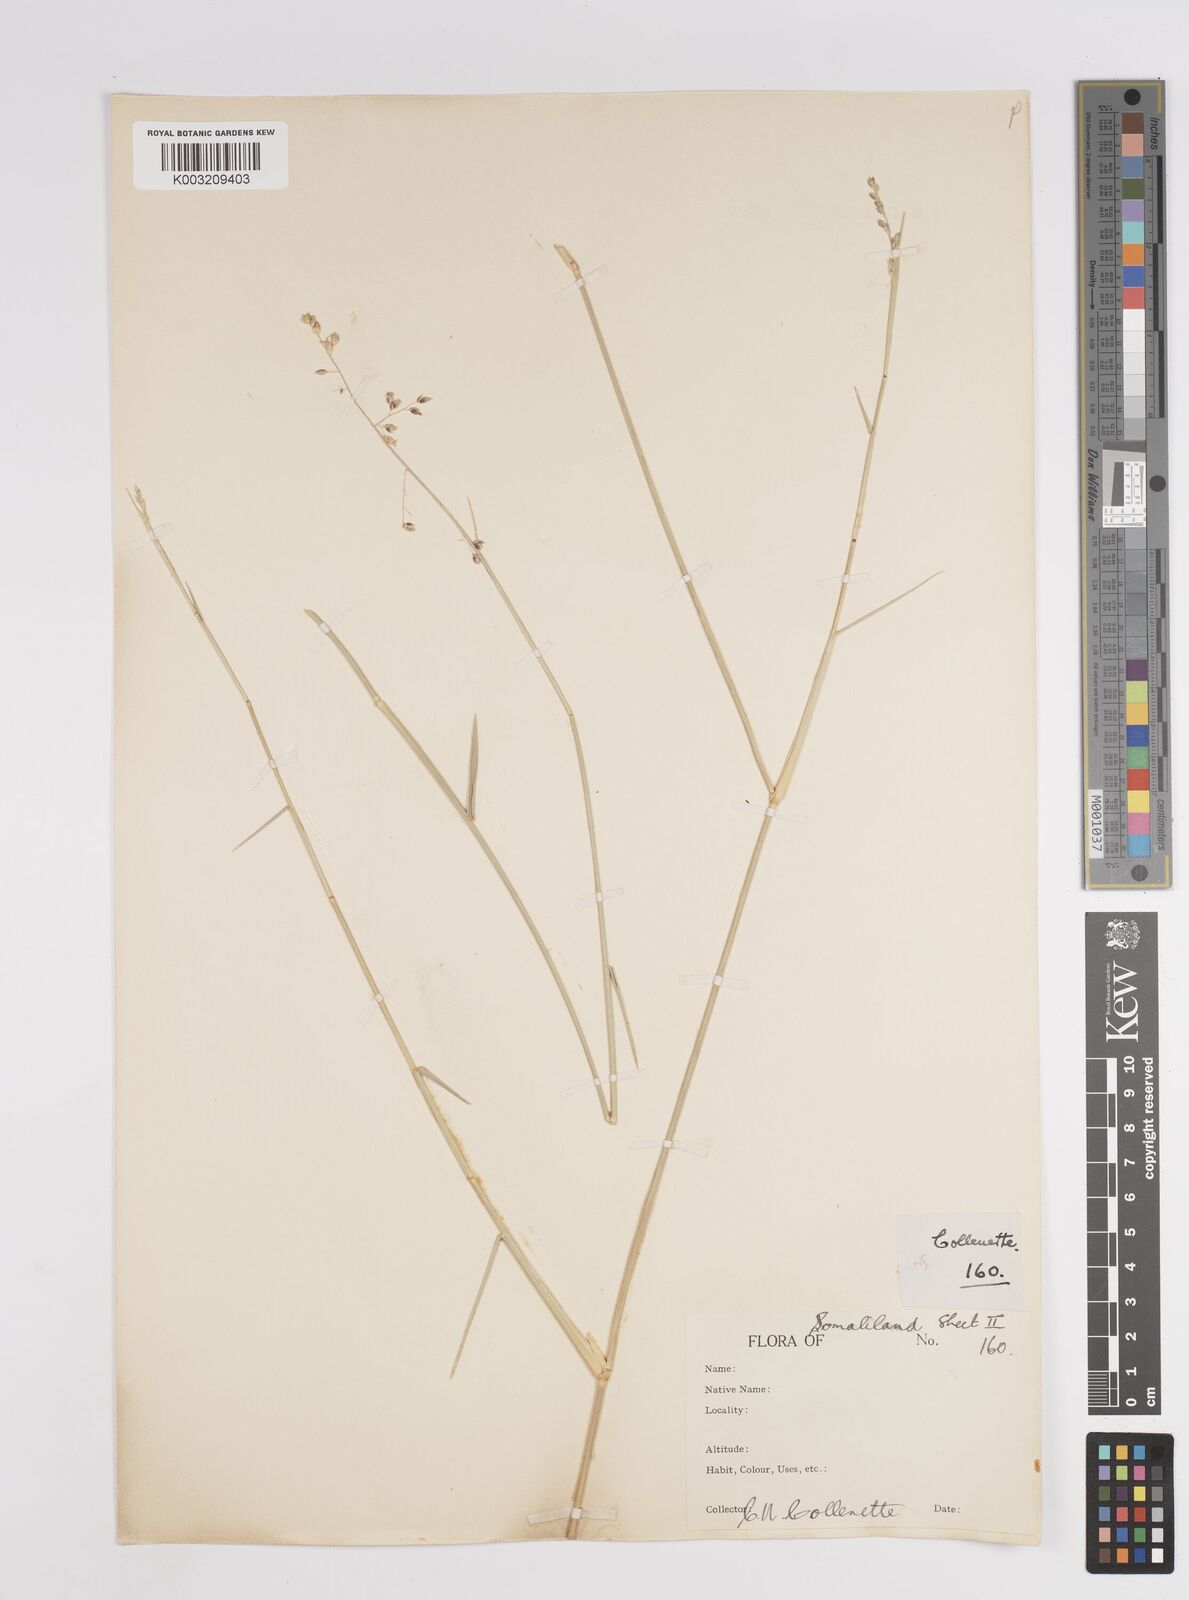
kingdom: Plantae
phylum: Tracheophyta
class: Liliopsida
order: Poales
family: Poaceae
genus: Panicum
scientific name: Panicum turgidum
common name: Desert grass
